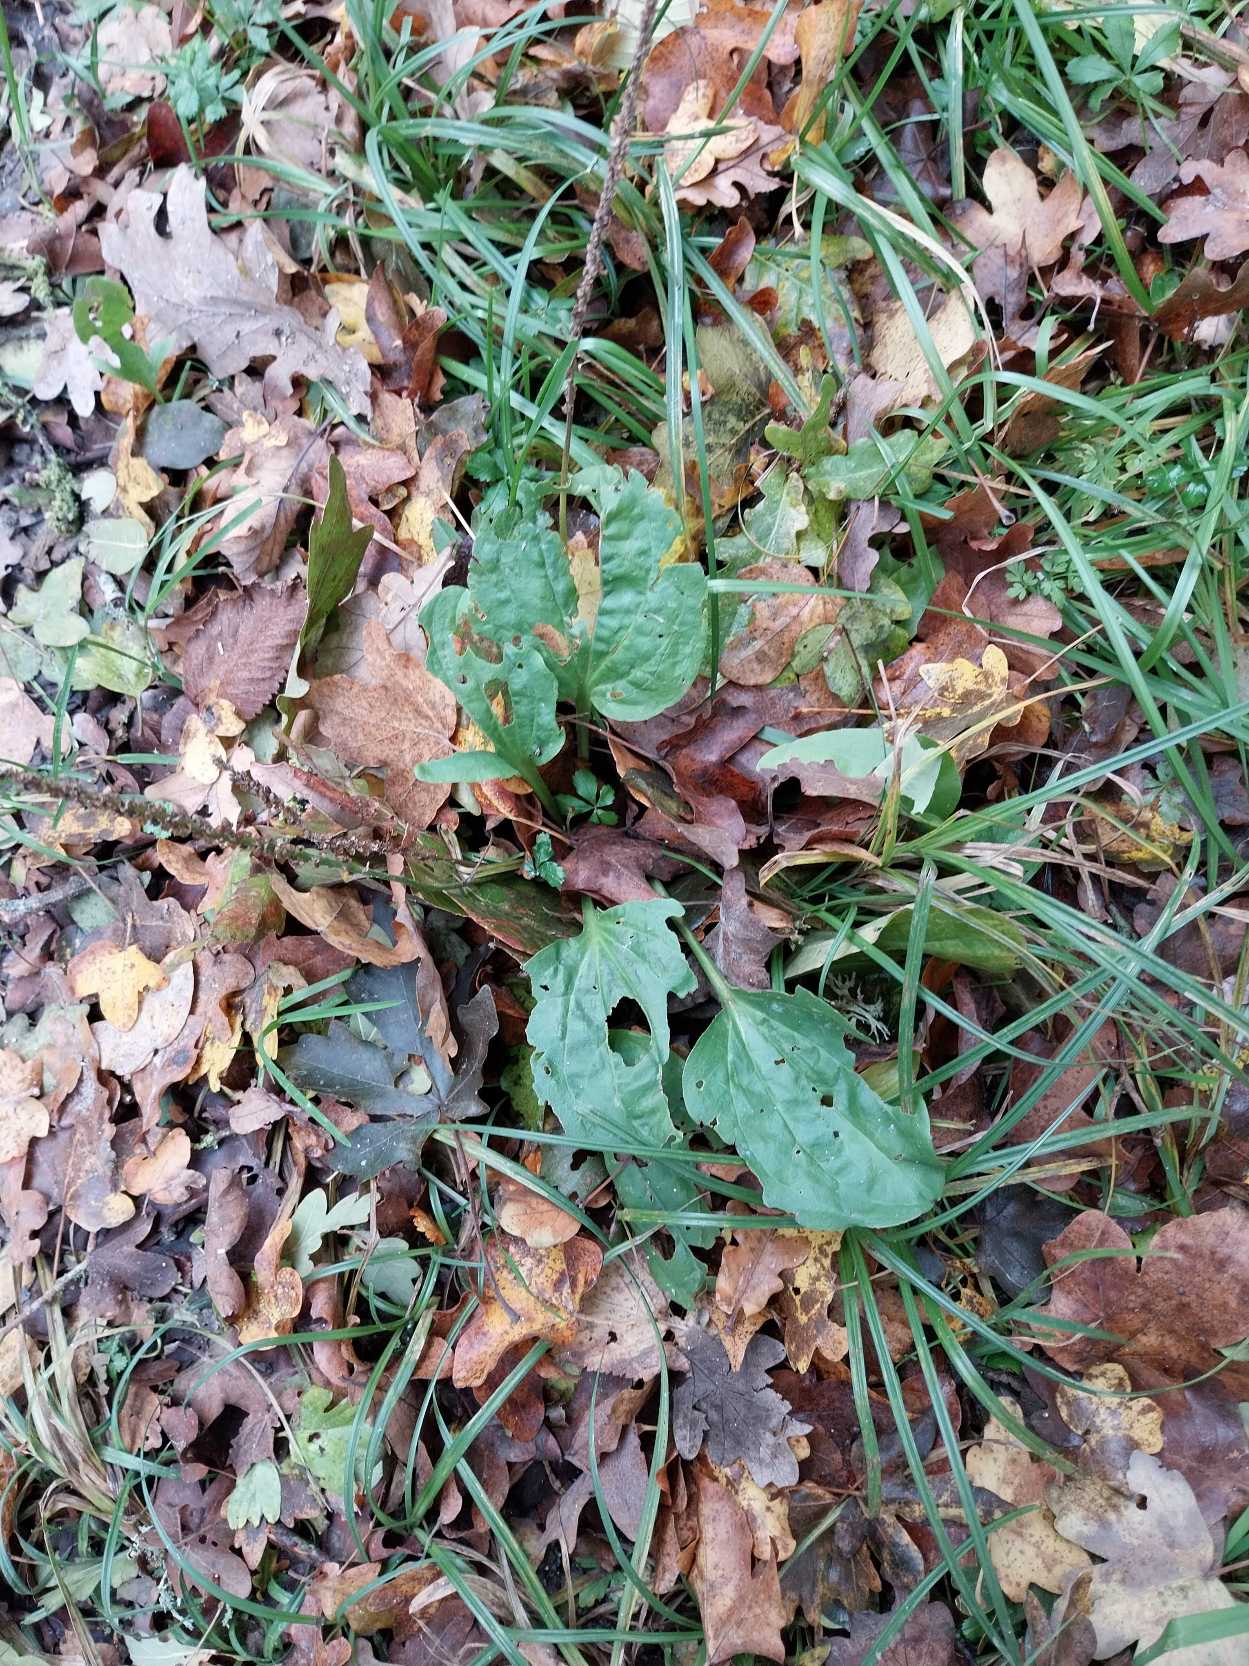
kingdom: Plantae
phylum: Tracheophyta
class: Magnoliopsida
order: Lamiales
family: Plantaginaceae
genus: Plantago
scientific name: Plantago major
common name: Glat vejbred
